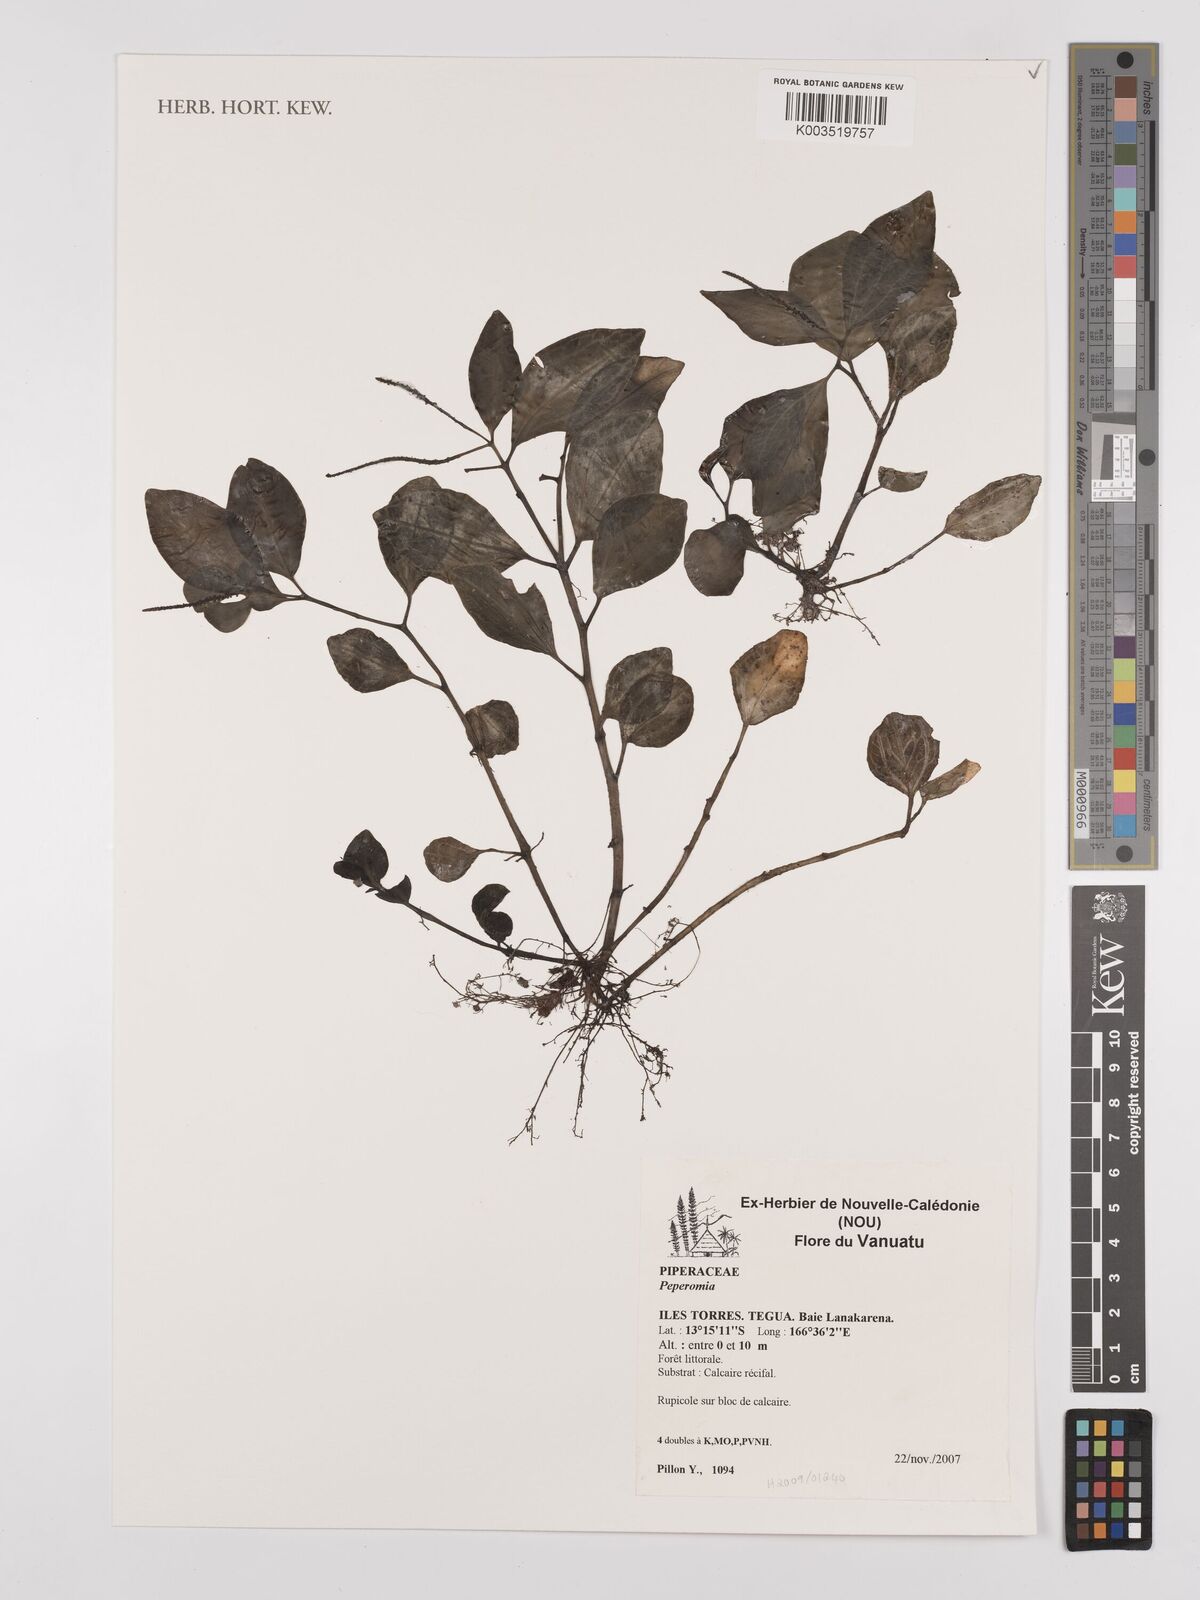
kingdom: Plantae
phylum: Tracheophyta
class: Magnoliopsida
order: Piperales
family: Piperaceae
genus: Peperomia
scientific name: Peperomia
